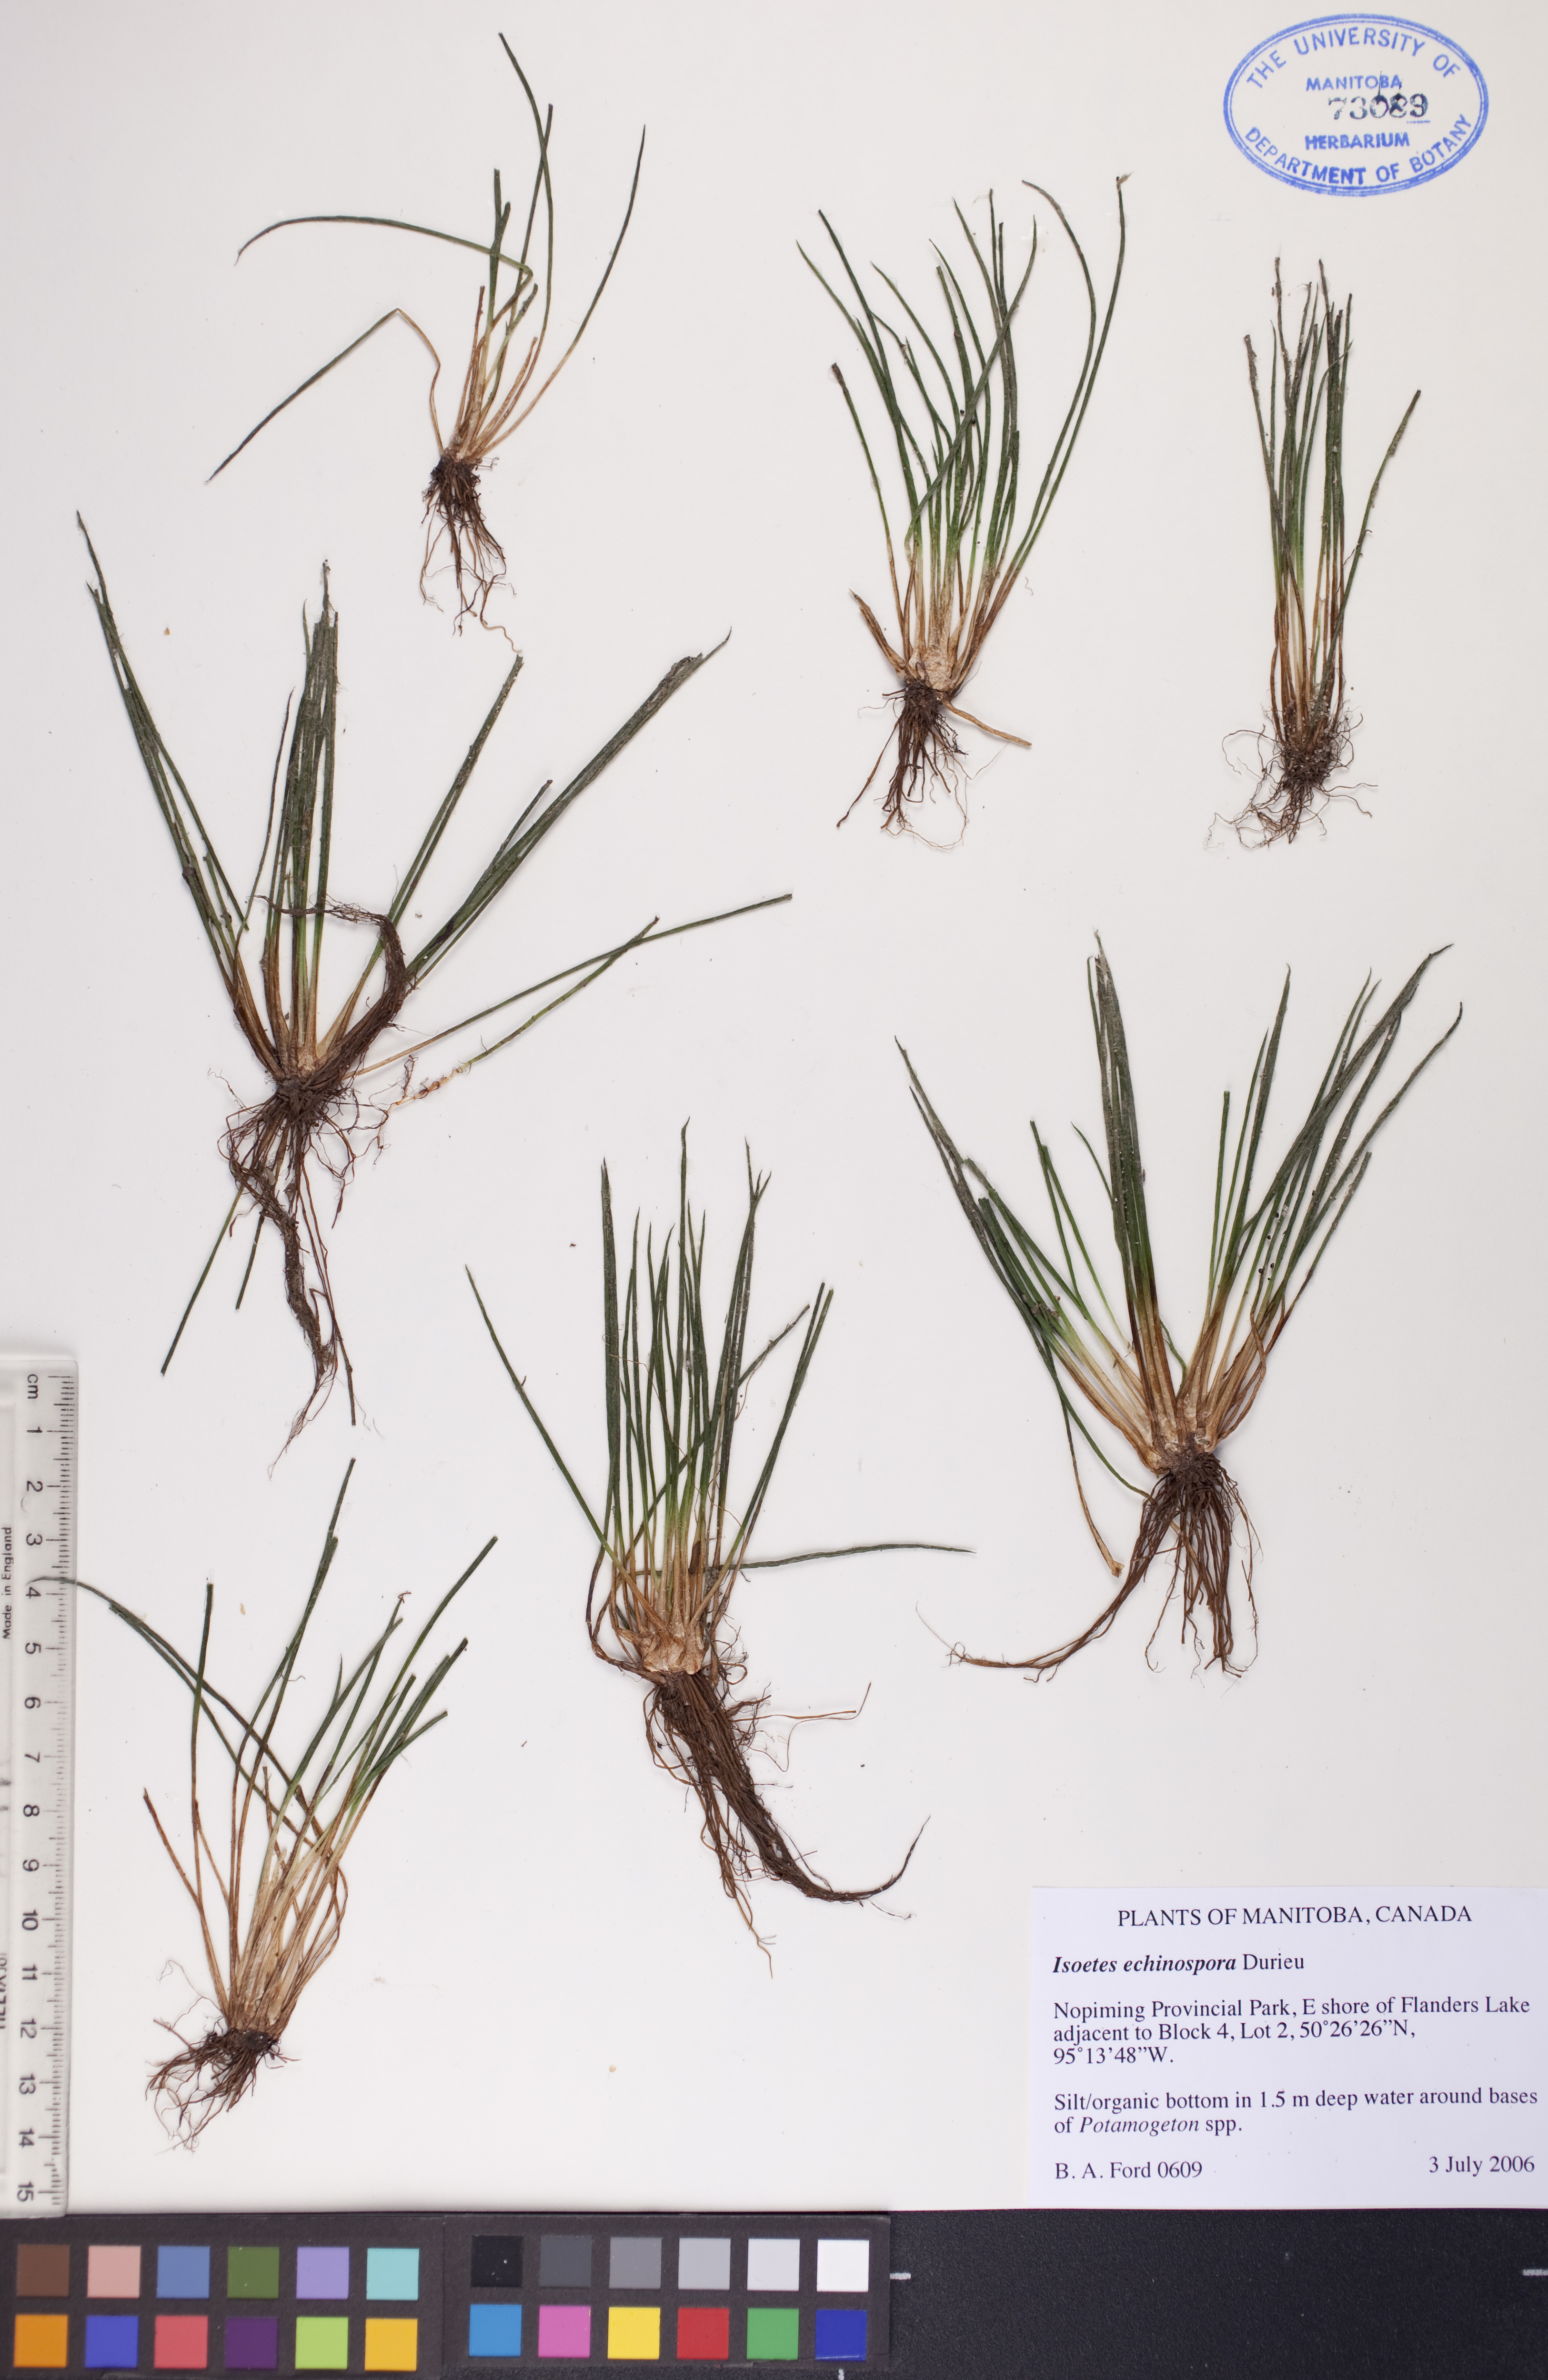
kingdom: Plantae
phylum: Tracheophyta
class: Lycopodiopsida
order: Isoetales
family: Isoetaceae
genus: Isoetes
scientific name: Isoetes echinospora
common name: Spring quillwort
